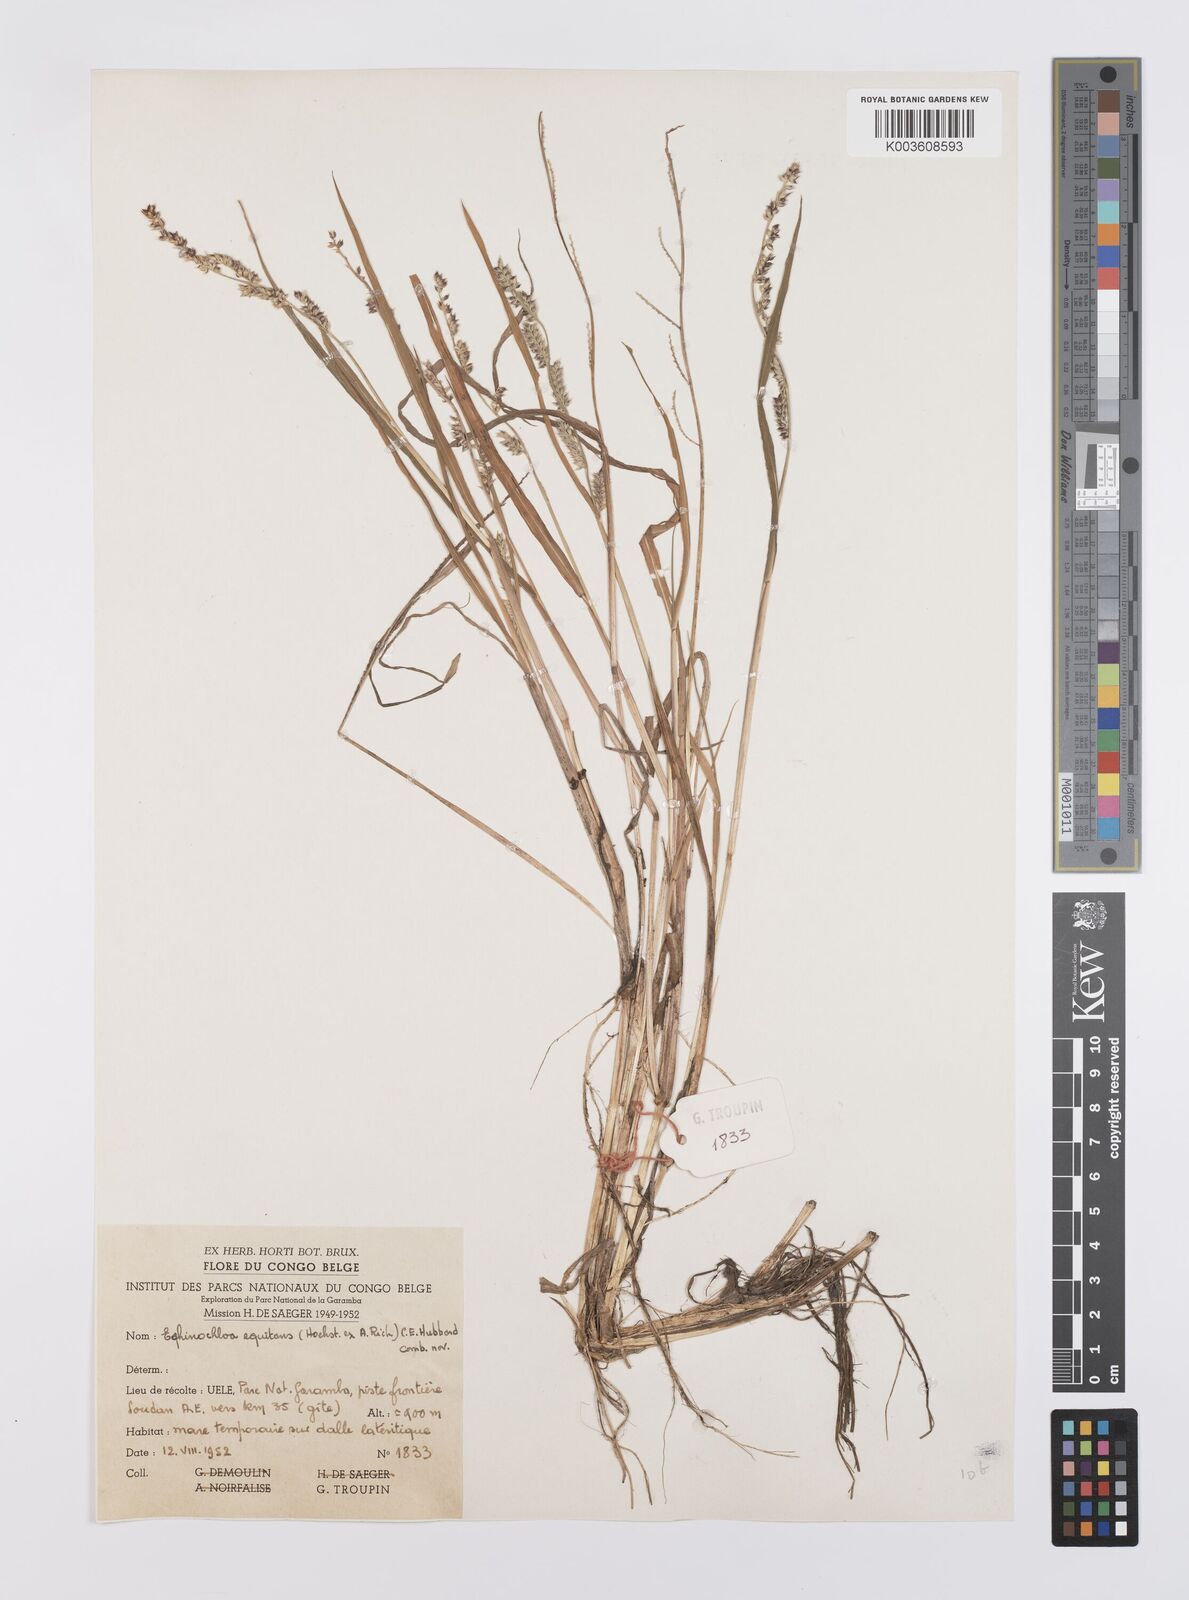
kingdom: Plantae
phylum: Tracheophyta
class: Liliopsida
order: Poales
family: Poaceae
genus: Echinochloa
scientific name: Echinochloa colonum
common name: Jungle rice
